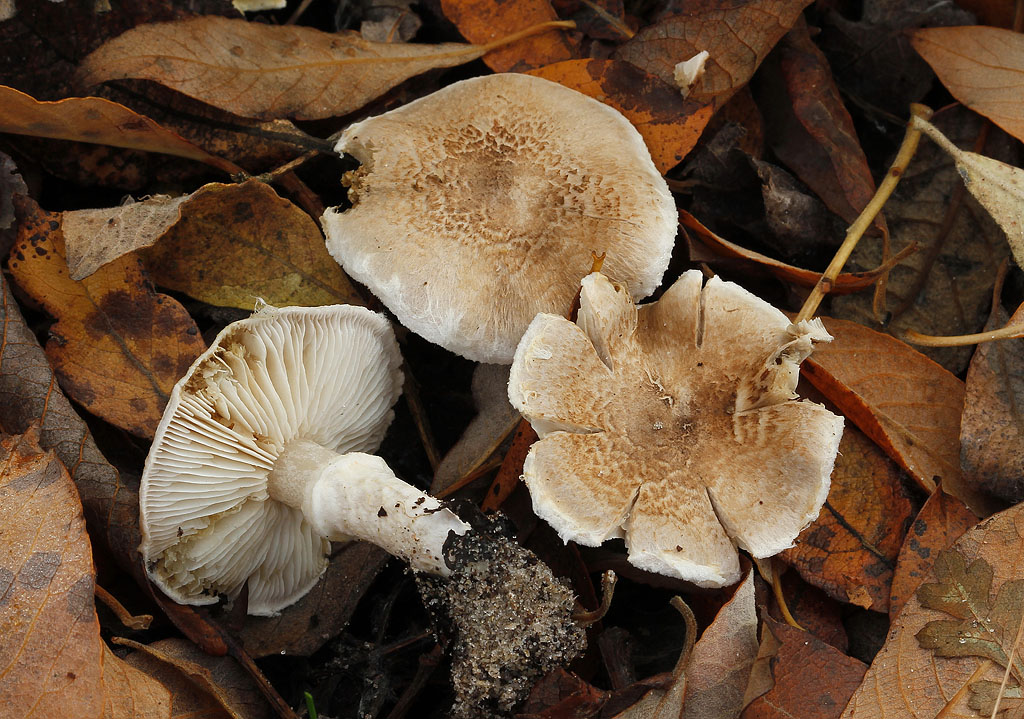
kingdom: Fungi
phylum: Basidiomycota
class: Agaricomycetes
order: Agaricales
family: Tricholomataceae
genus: Tricholoma
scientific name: Tricholoma cingulatum
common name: ring-ridderhat
